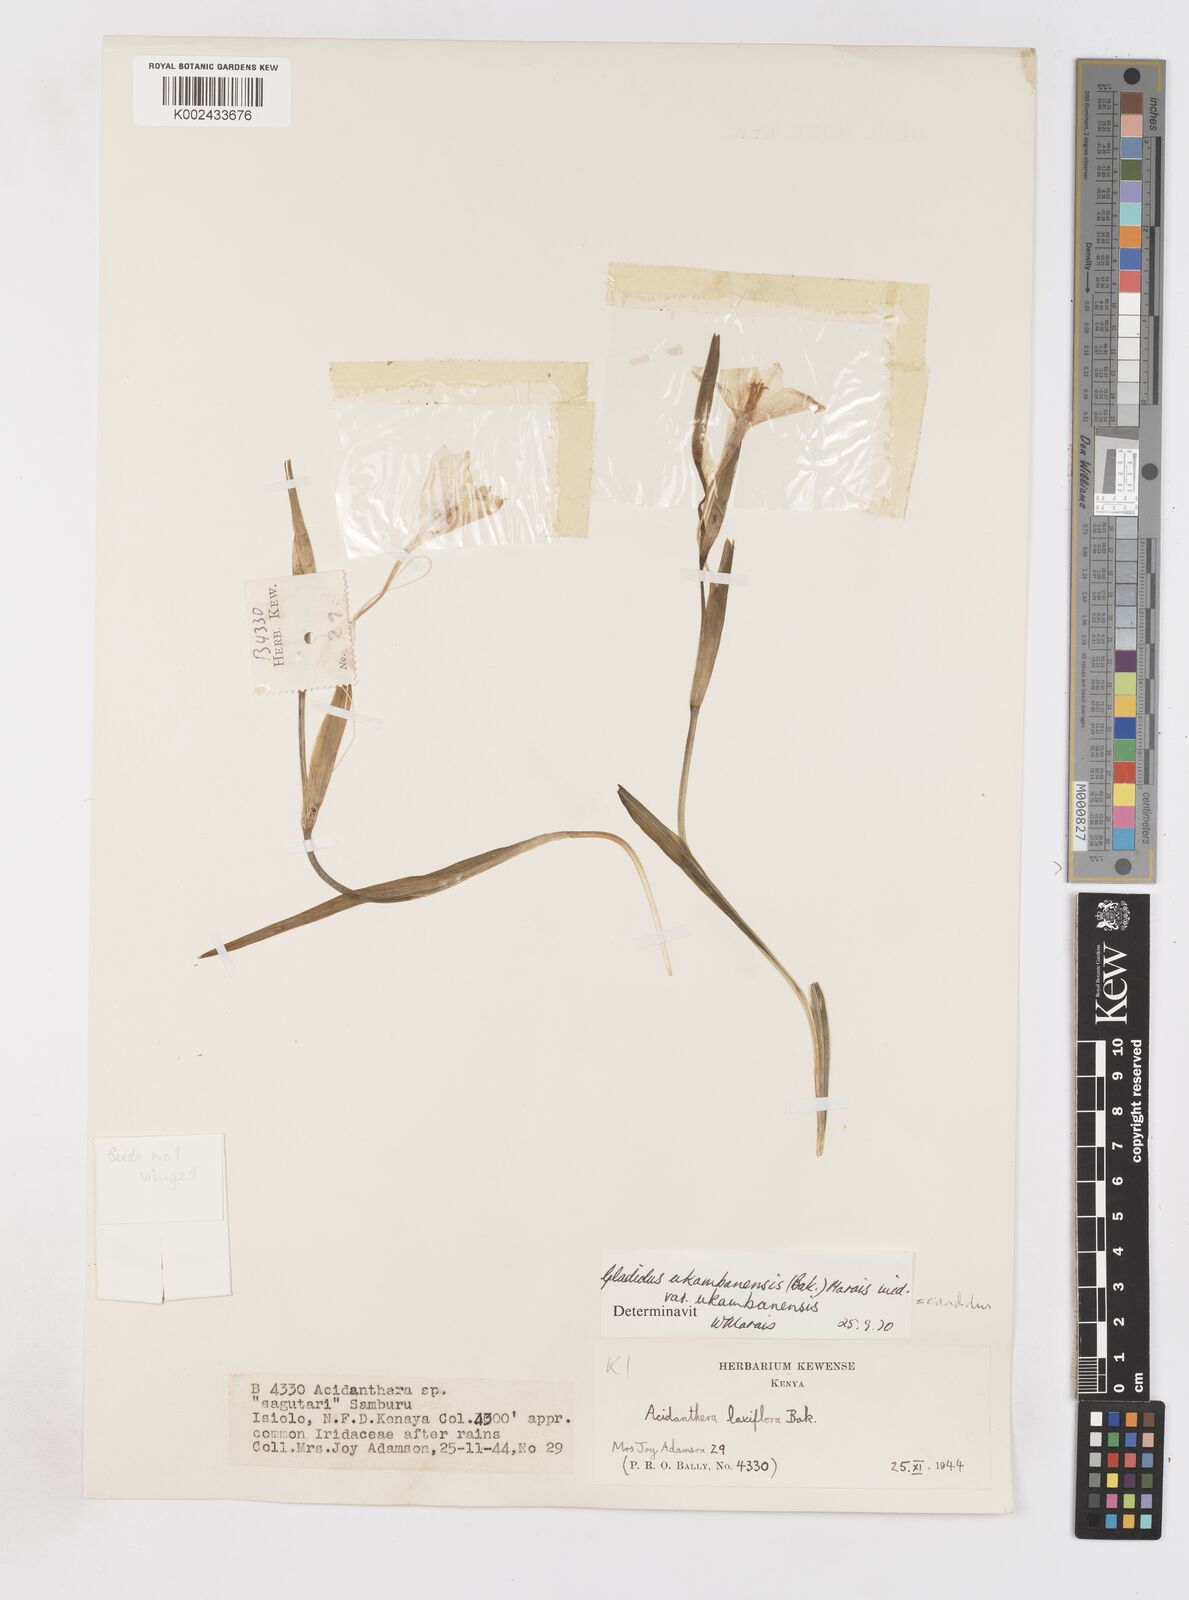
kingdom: Plantae
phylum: Tracheophyta
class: Liliopsida
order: Asparagales
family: Iridaceae
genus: Gladiolus
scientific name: Gladiolus
